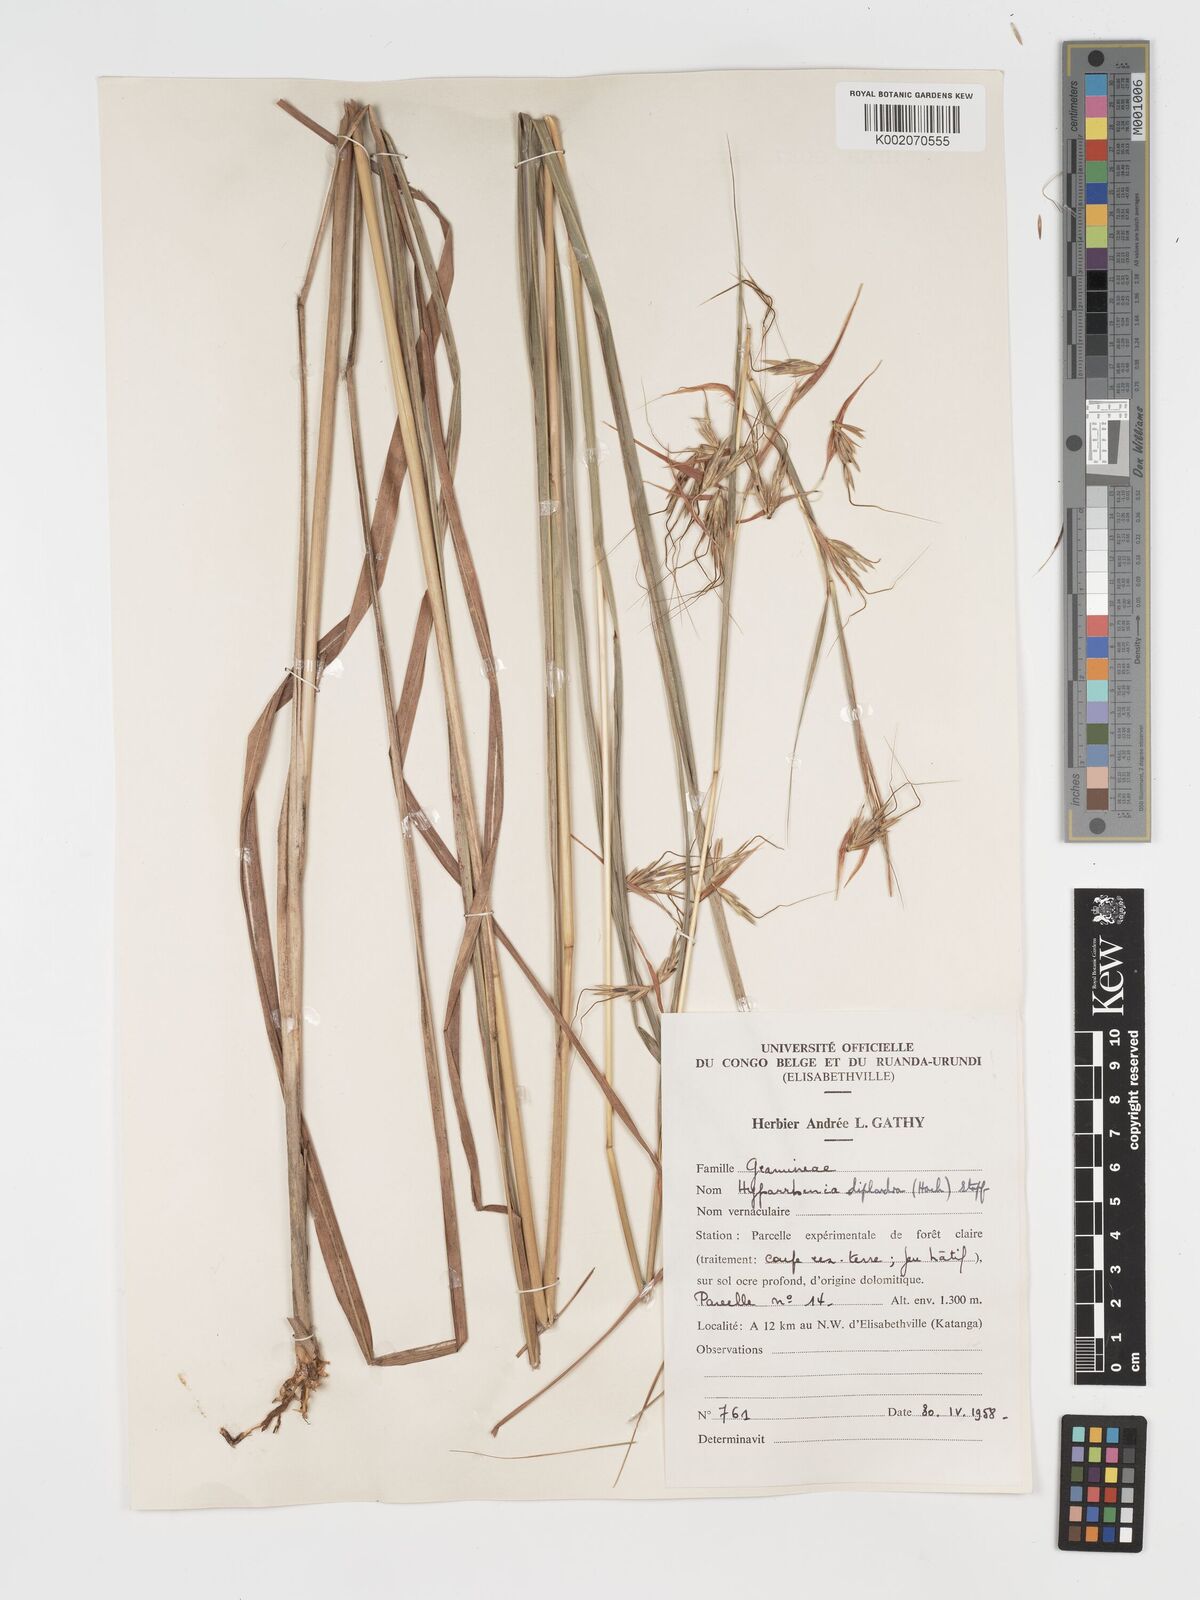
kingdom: Plantae
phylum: Tracheophyta
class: Liliopsida
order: Poales
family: Poaceae
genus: Hyparrhenia
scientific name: Hyparrhenia diplandra
